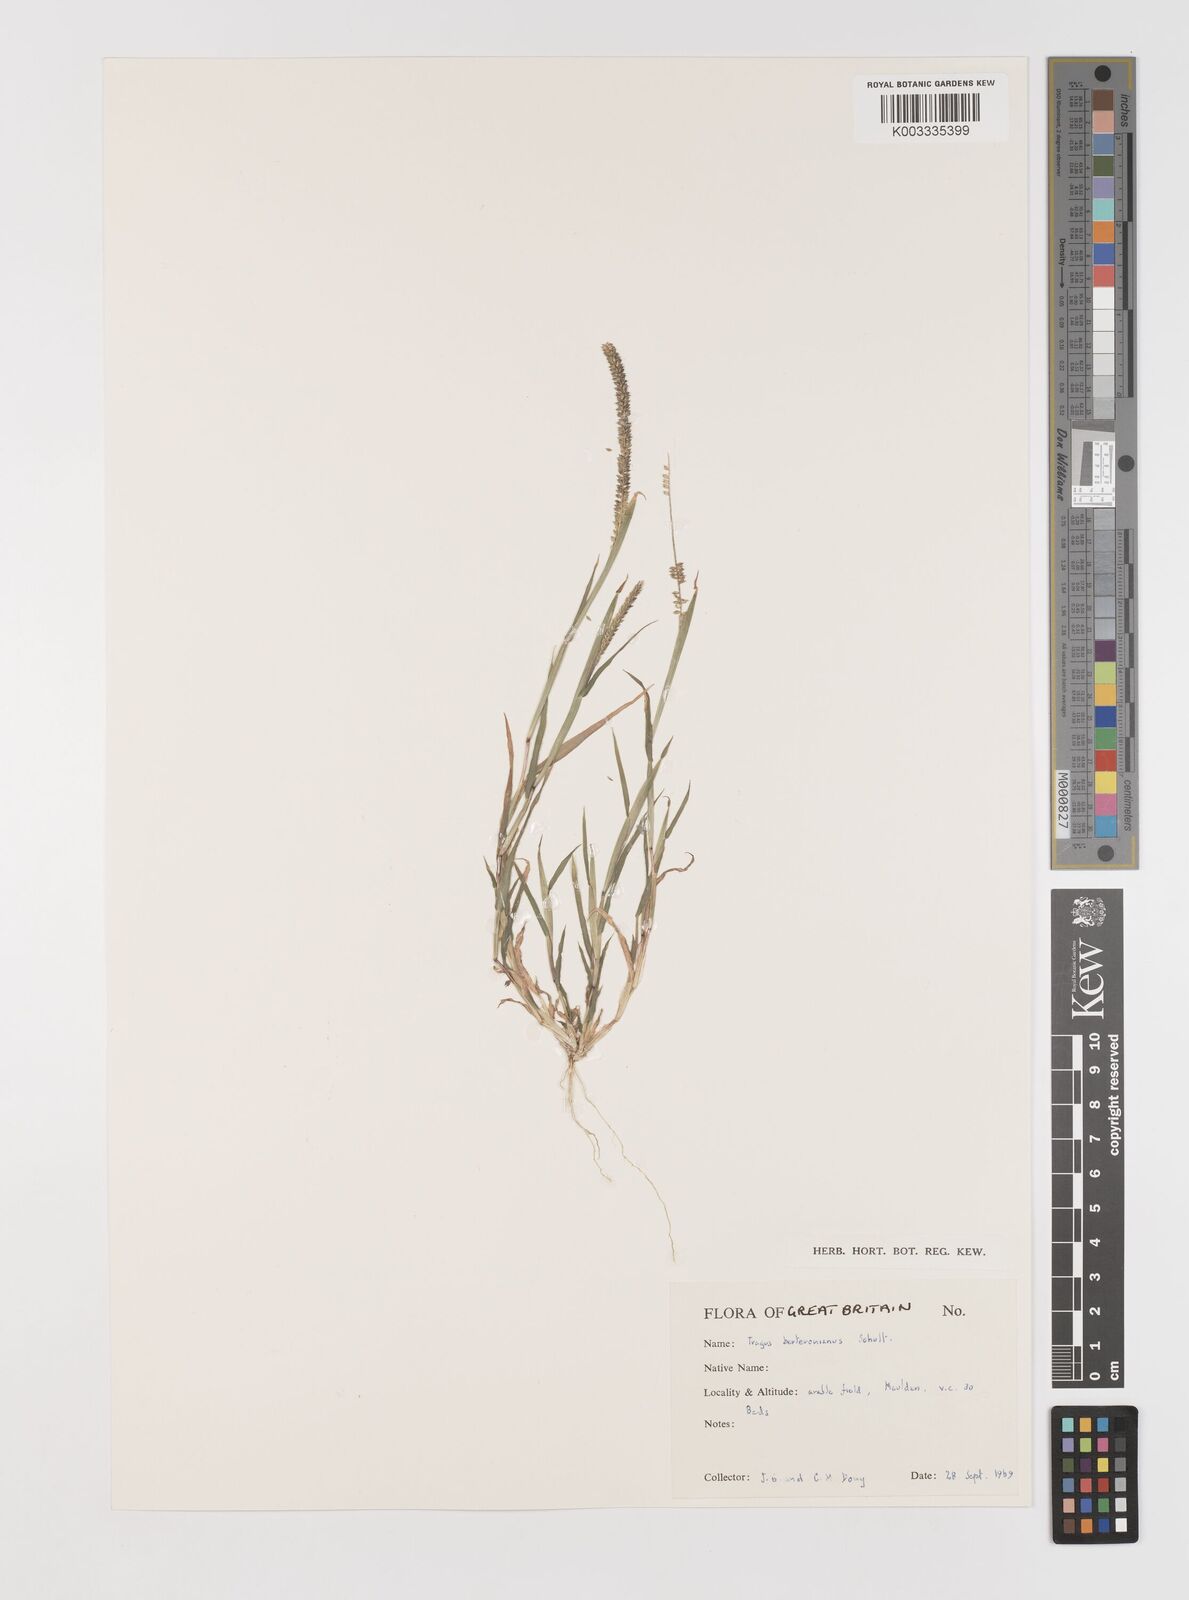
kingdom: Plantae
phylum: Tracheophyta
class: Liliopsida
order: Poales
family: Poaceae
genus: Tragus
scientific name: Tragus berteronianus
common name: African bur-grass
